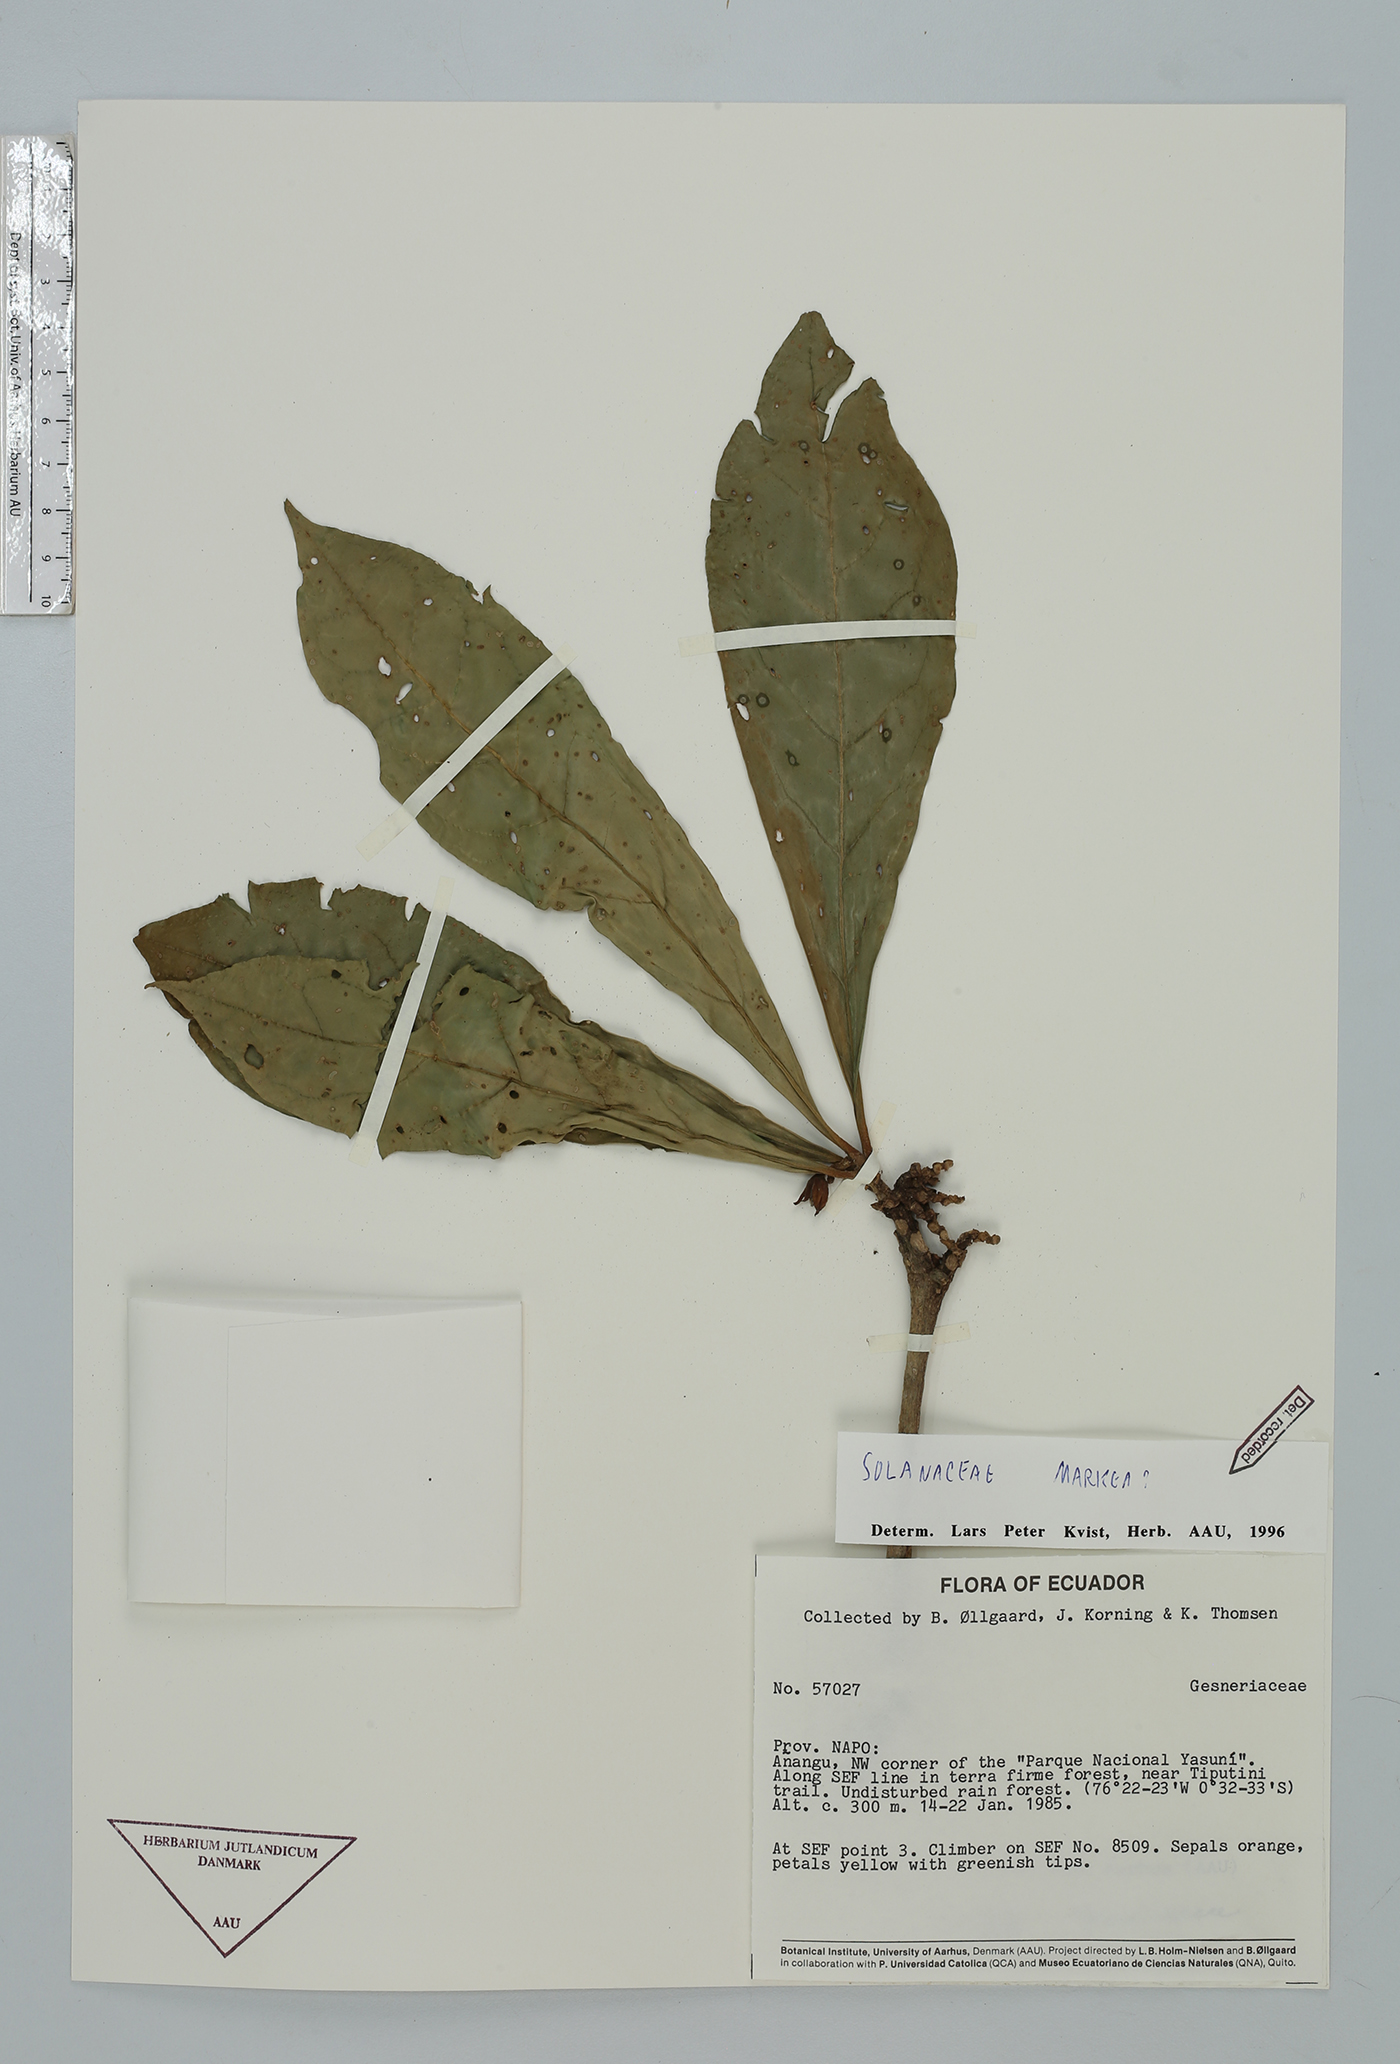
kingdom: Plantae
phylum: Tracheophyta
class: Magnoliopsida
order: Solanales
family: Solanaceae
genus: Hawkesiophyton
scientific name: Hawkesiophyton ochraceum
